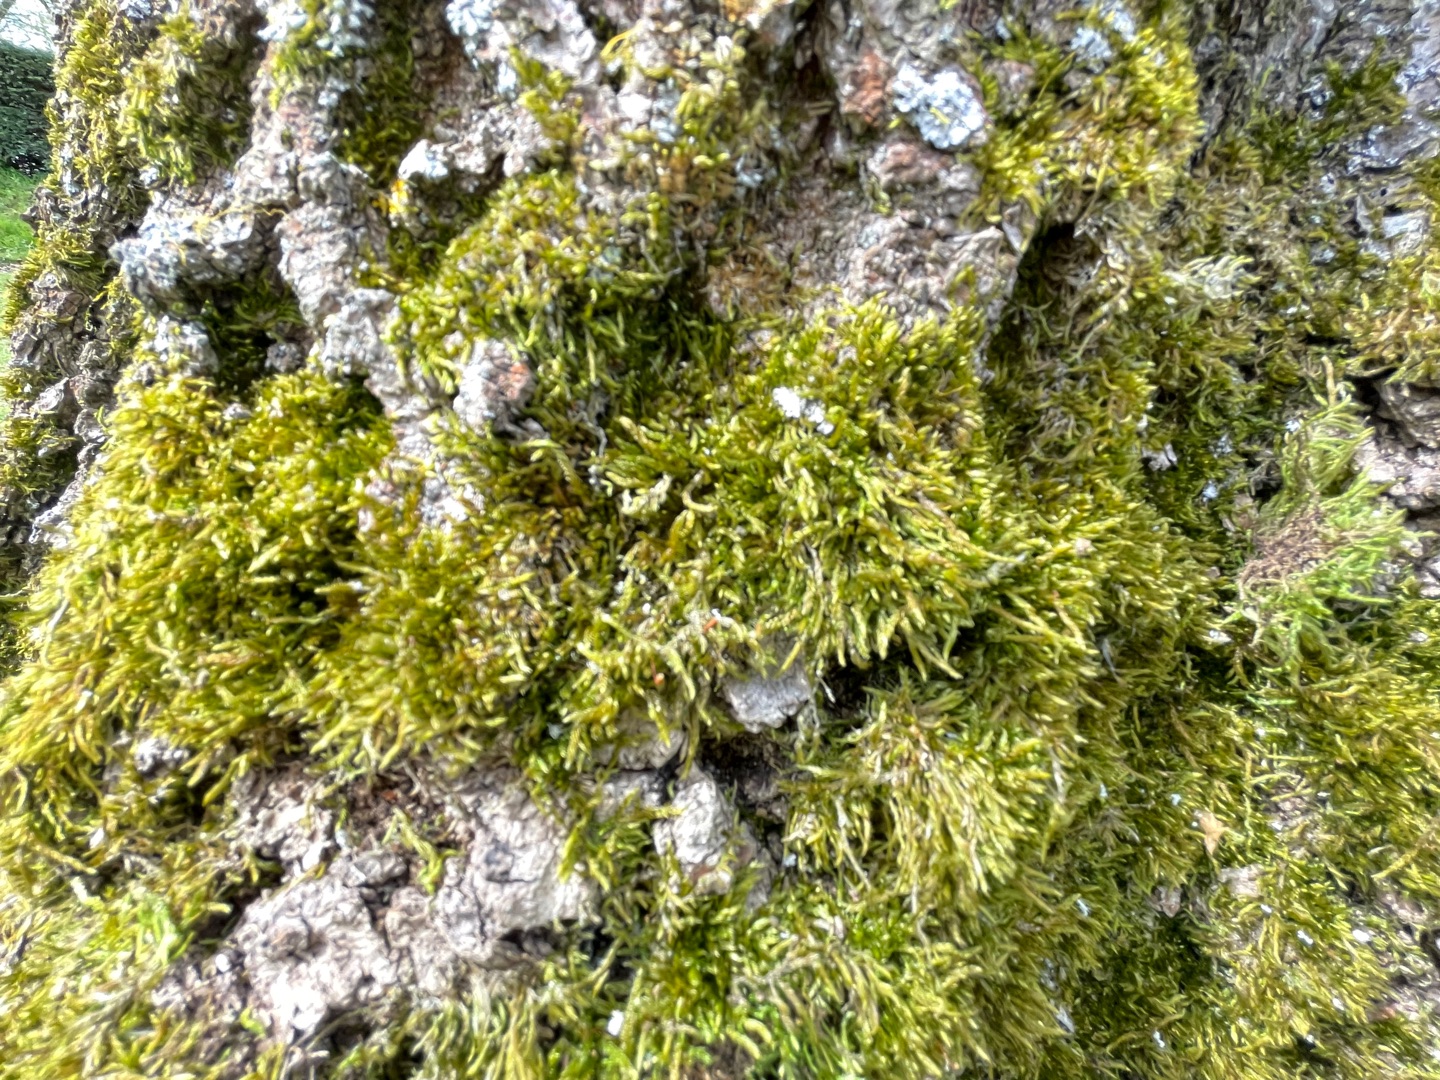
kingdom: Plantae
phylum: Bryophyta
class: Bryopsida
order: Hypnales
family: Hypnaceae
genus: Hypnum
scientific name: Hypnum cupressiforme
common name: Almindelig cypresmos
